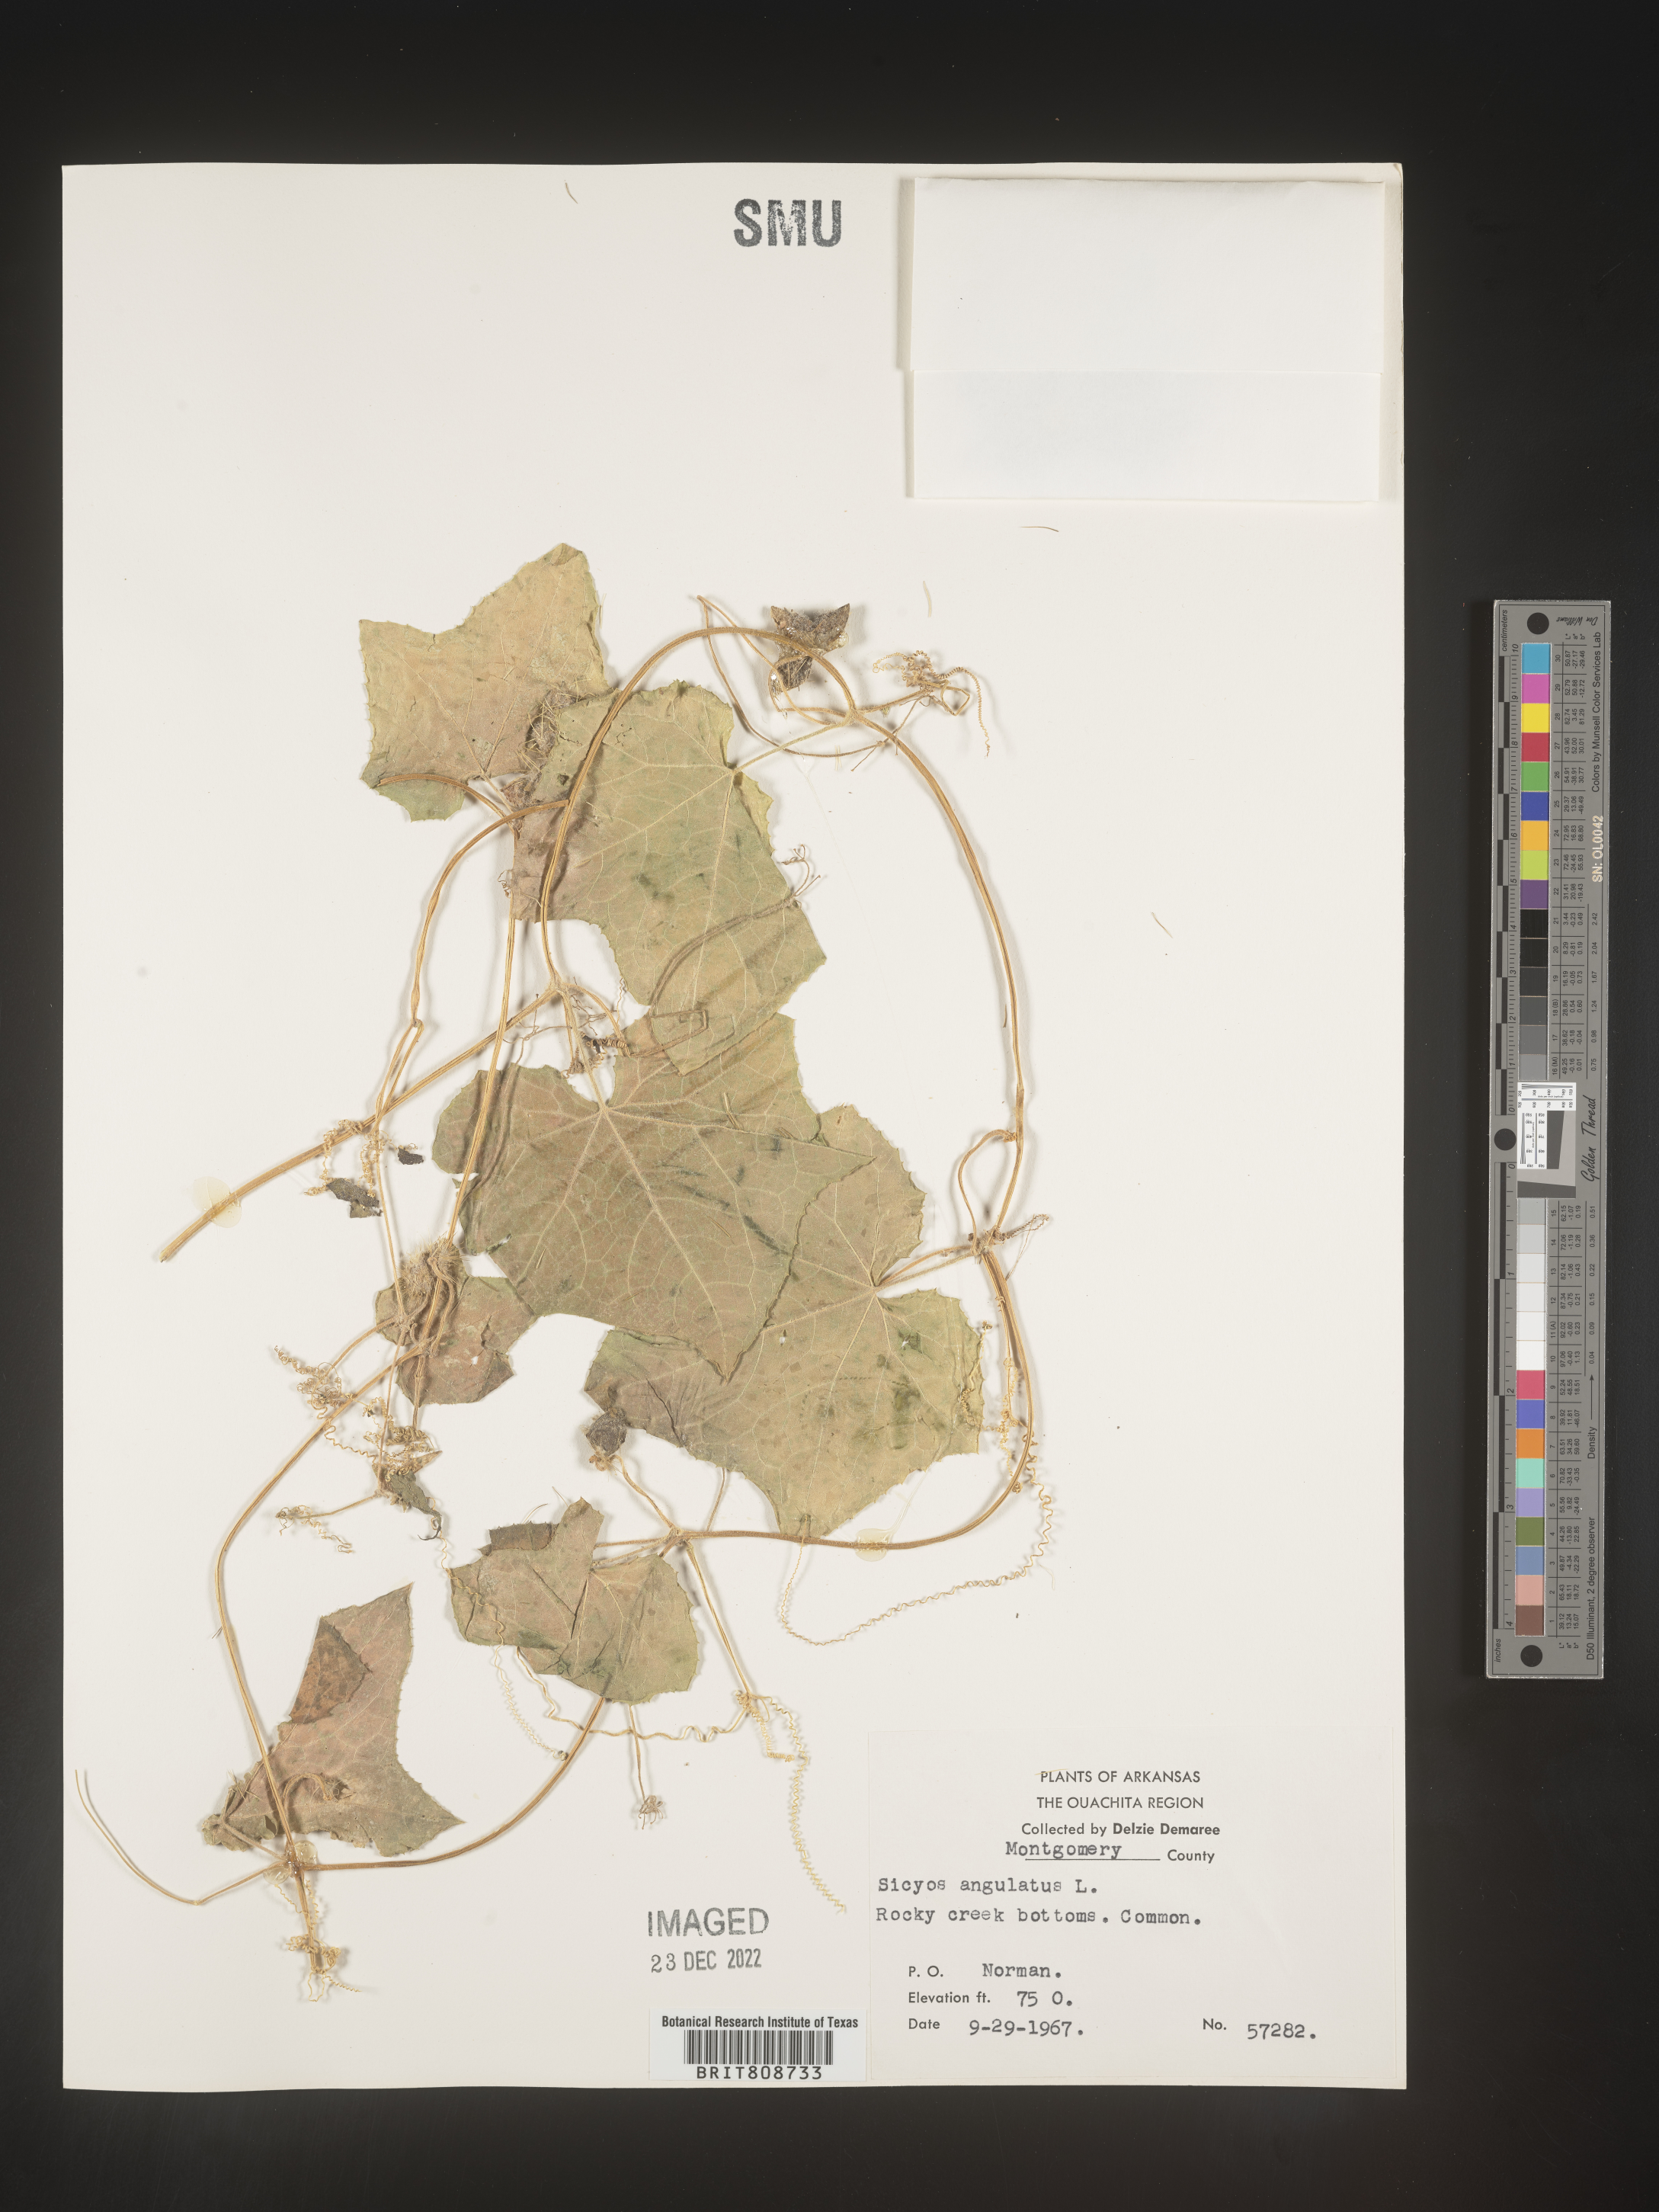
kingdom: Plantae
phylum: Tracheophyta
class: Magnoliopsida
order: Cucurbitales
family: Cucurbitaceae
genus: Sicyos
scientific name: Sicyos angulatus
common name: Angled burr cucumber
